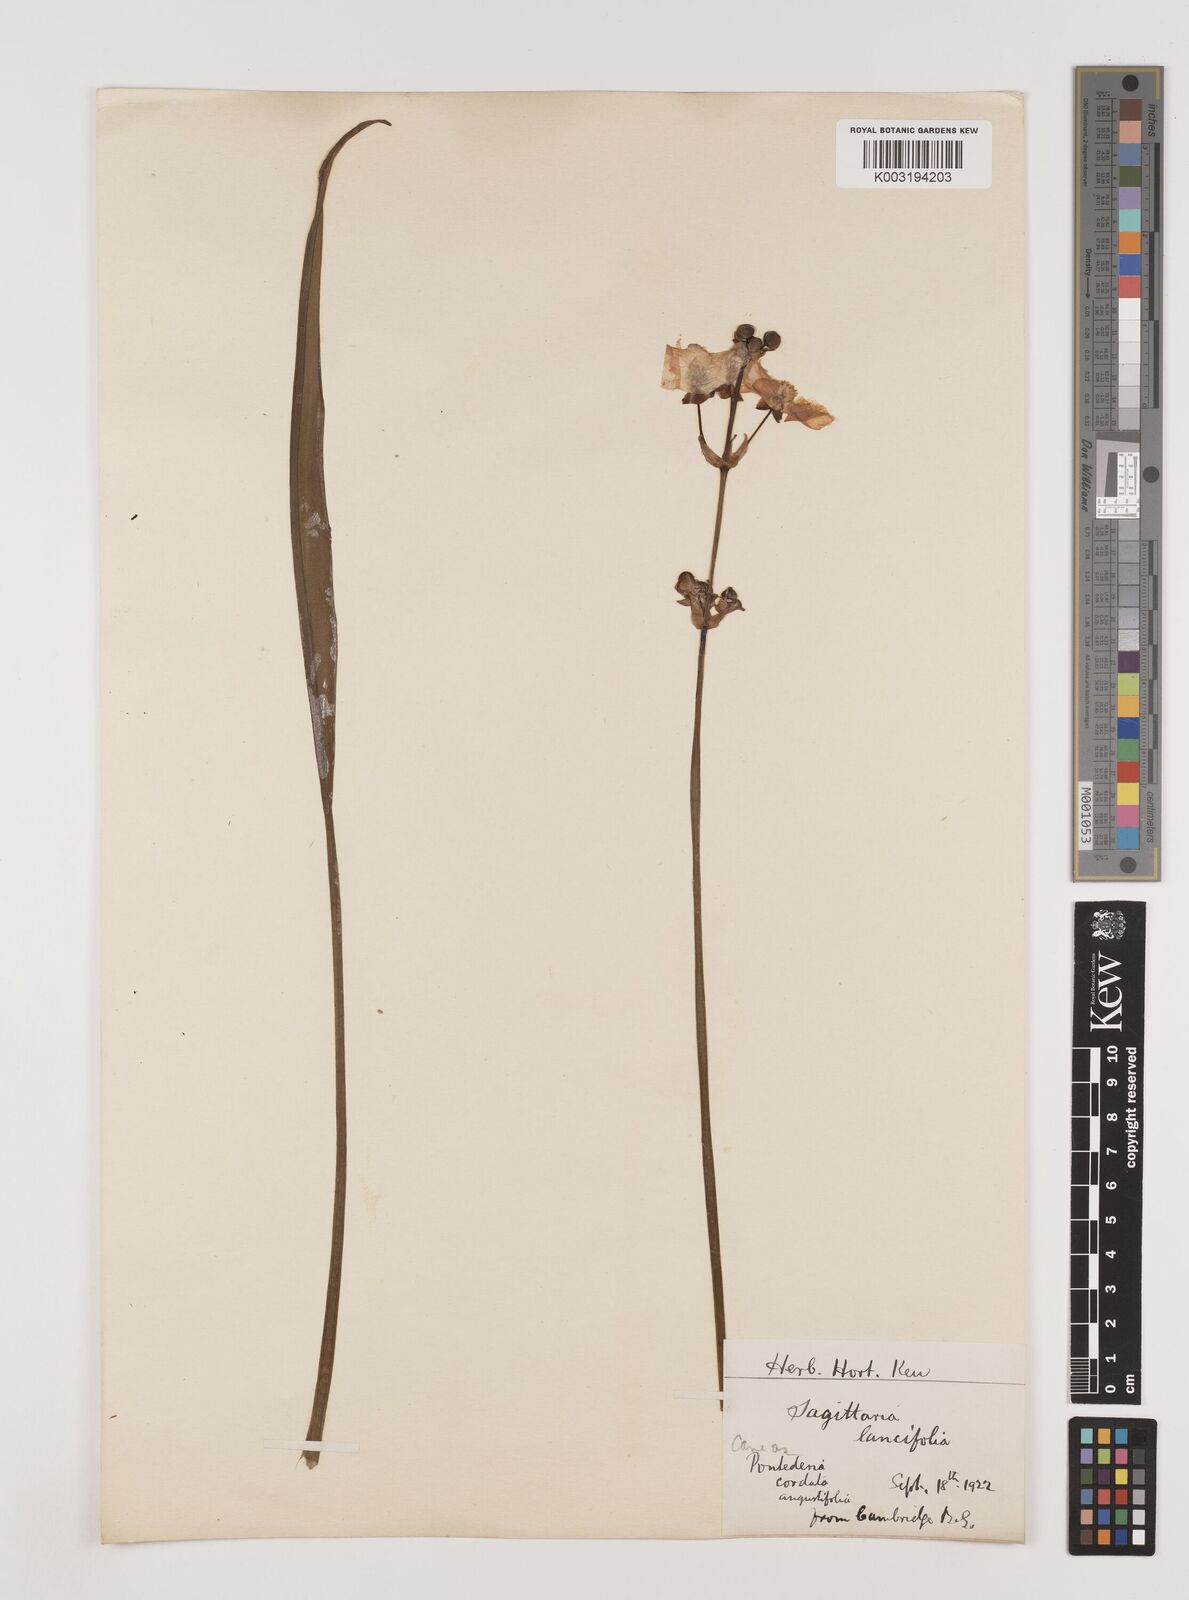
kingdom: Plantae
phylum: Tracheophyta
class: Liliopsida
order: Alismatales
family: Alismataceae
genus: Sagittaria
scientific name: Sagittaria lancifolia
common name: Lance-leaf arrowhead
